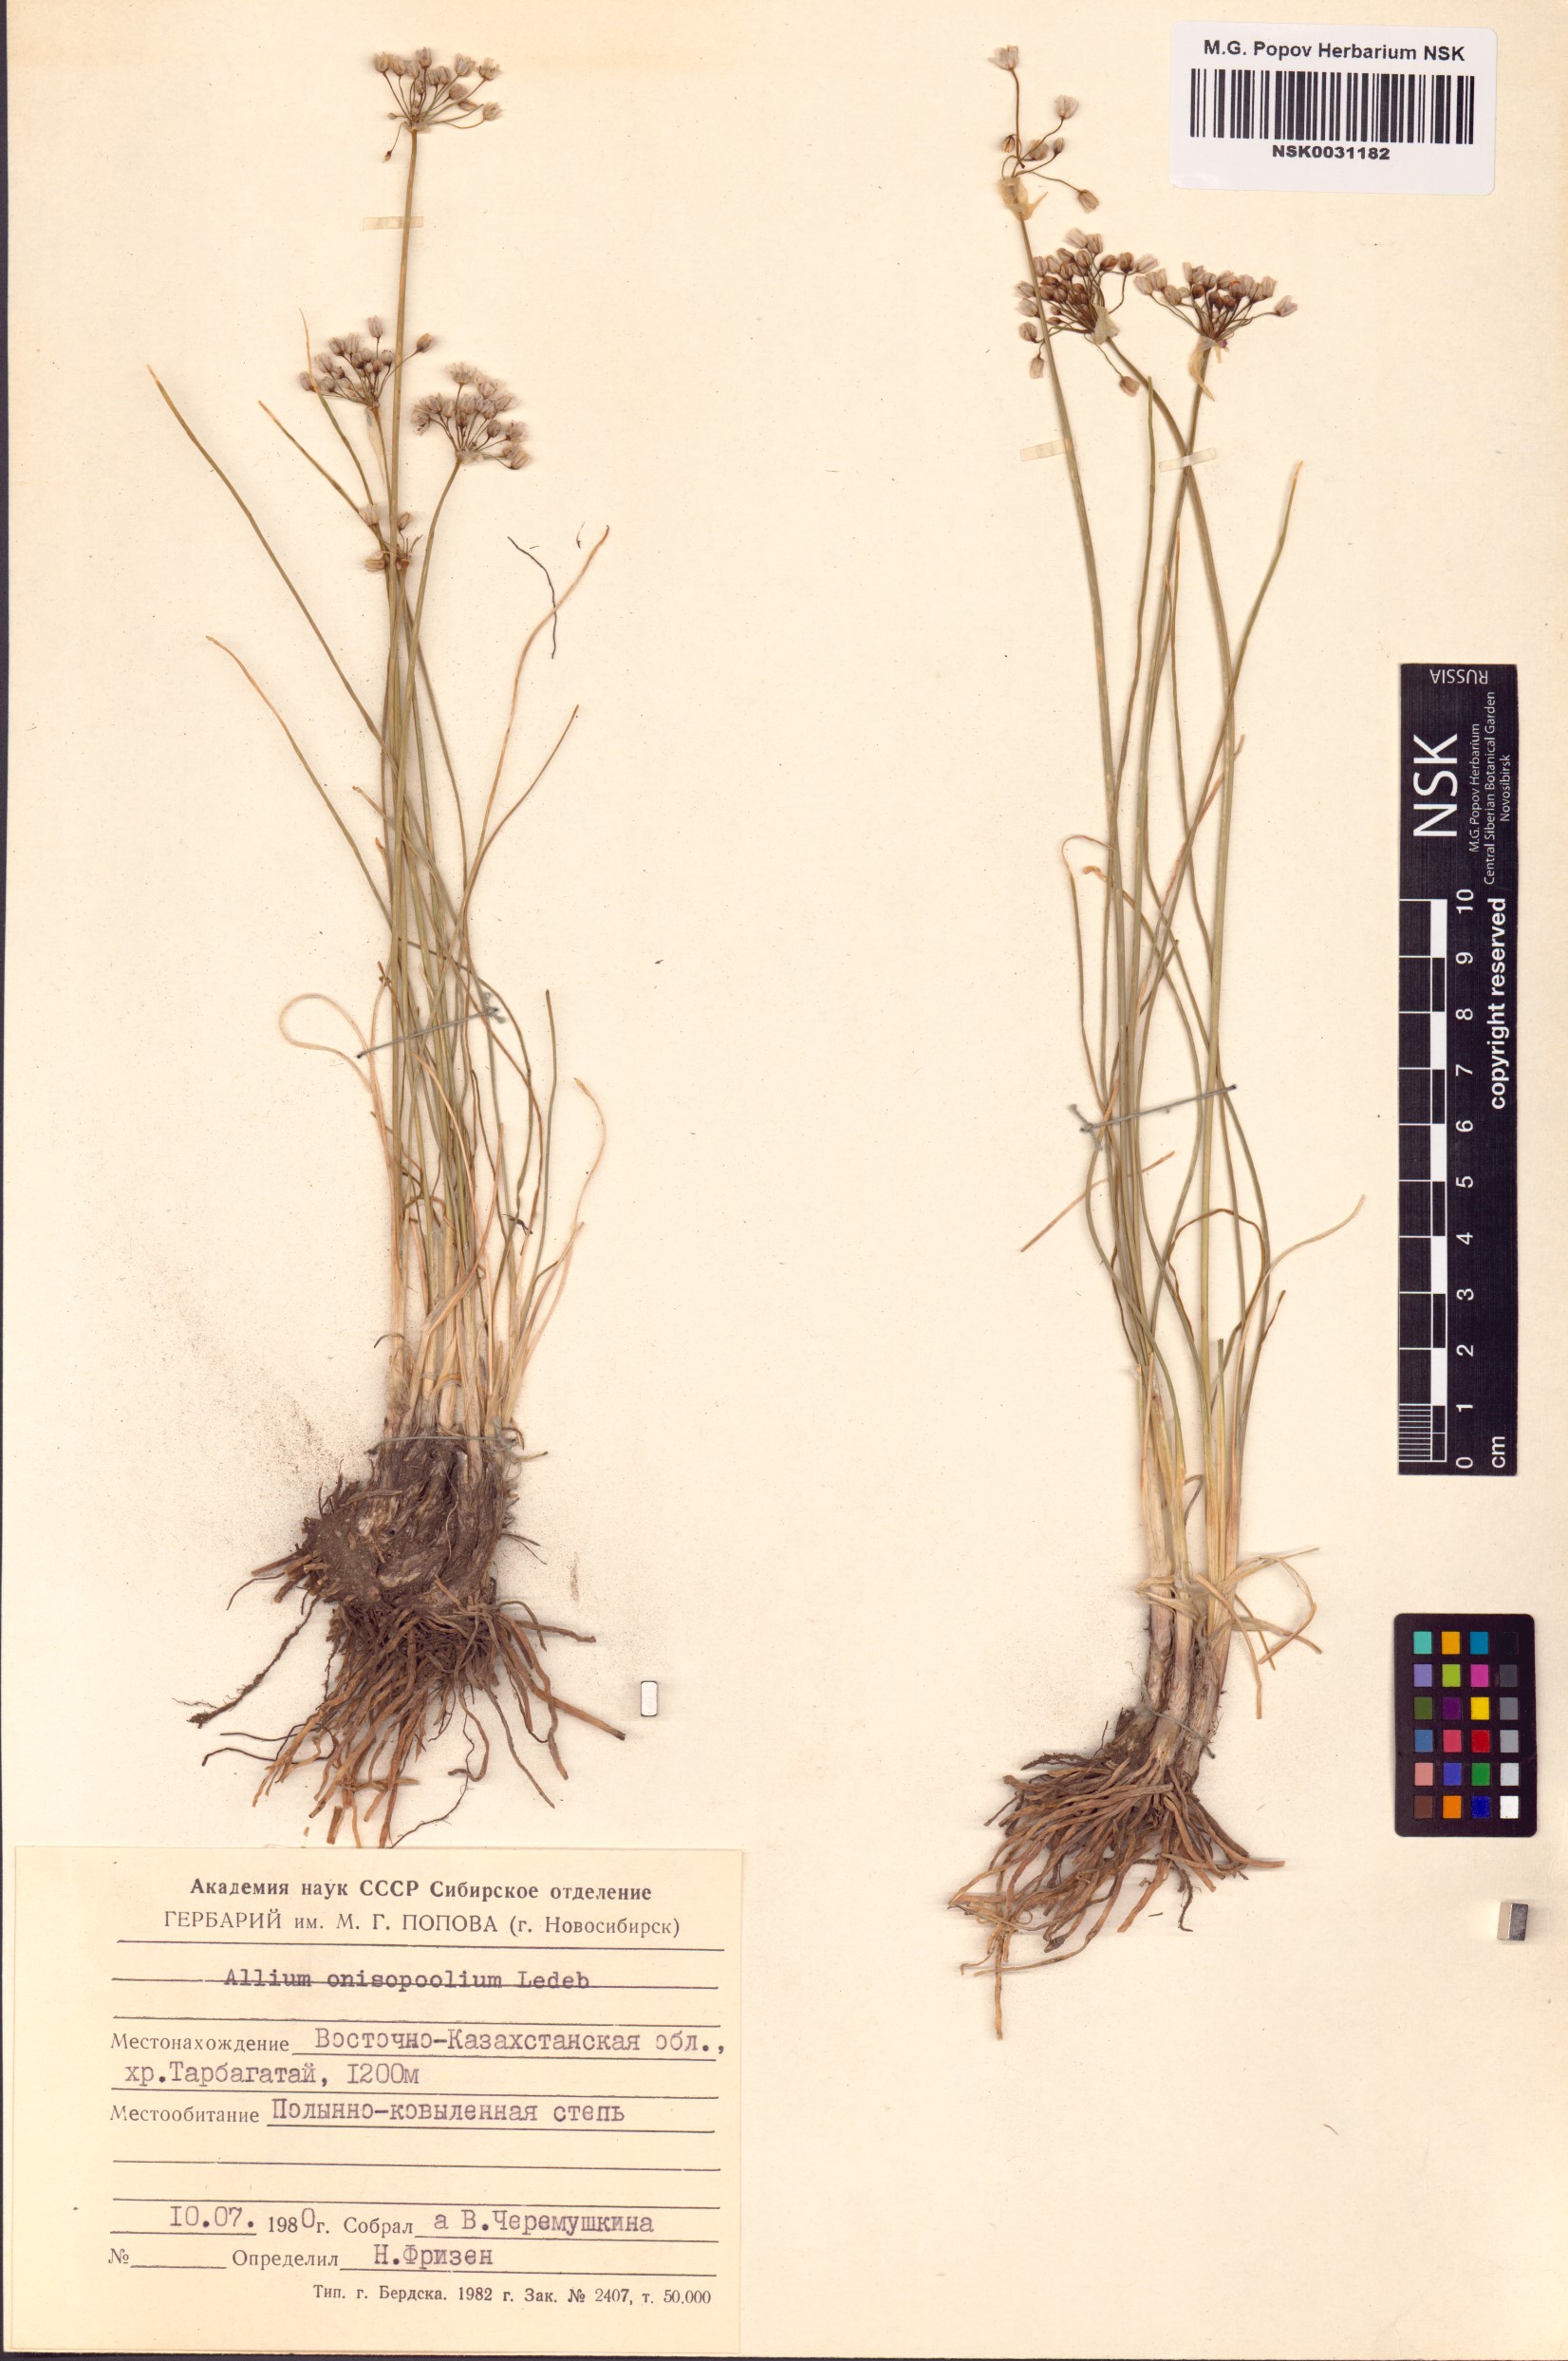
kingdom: Plantae
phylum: Tracheophyta
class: Liliopsida
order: Asparagales
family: Amaryllidaceae
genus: Allium
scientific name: Allium anisopodium
